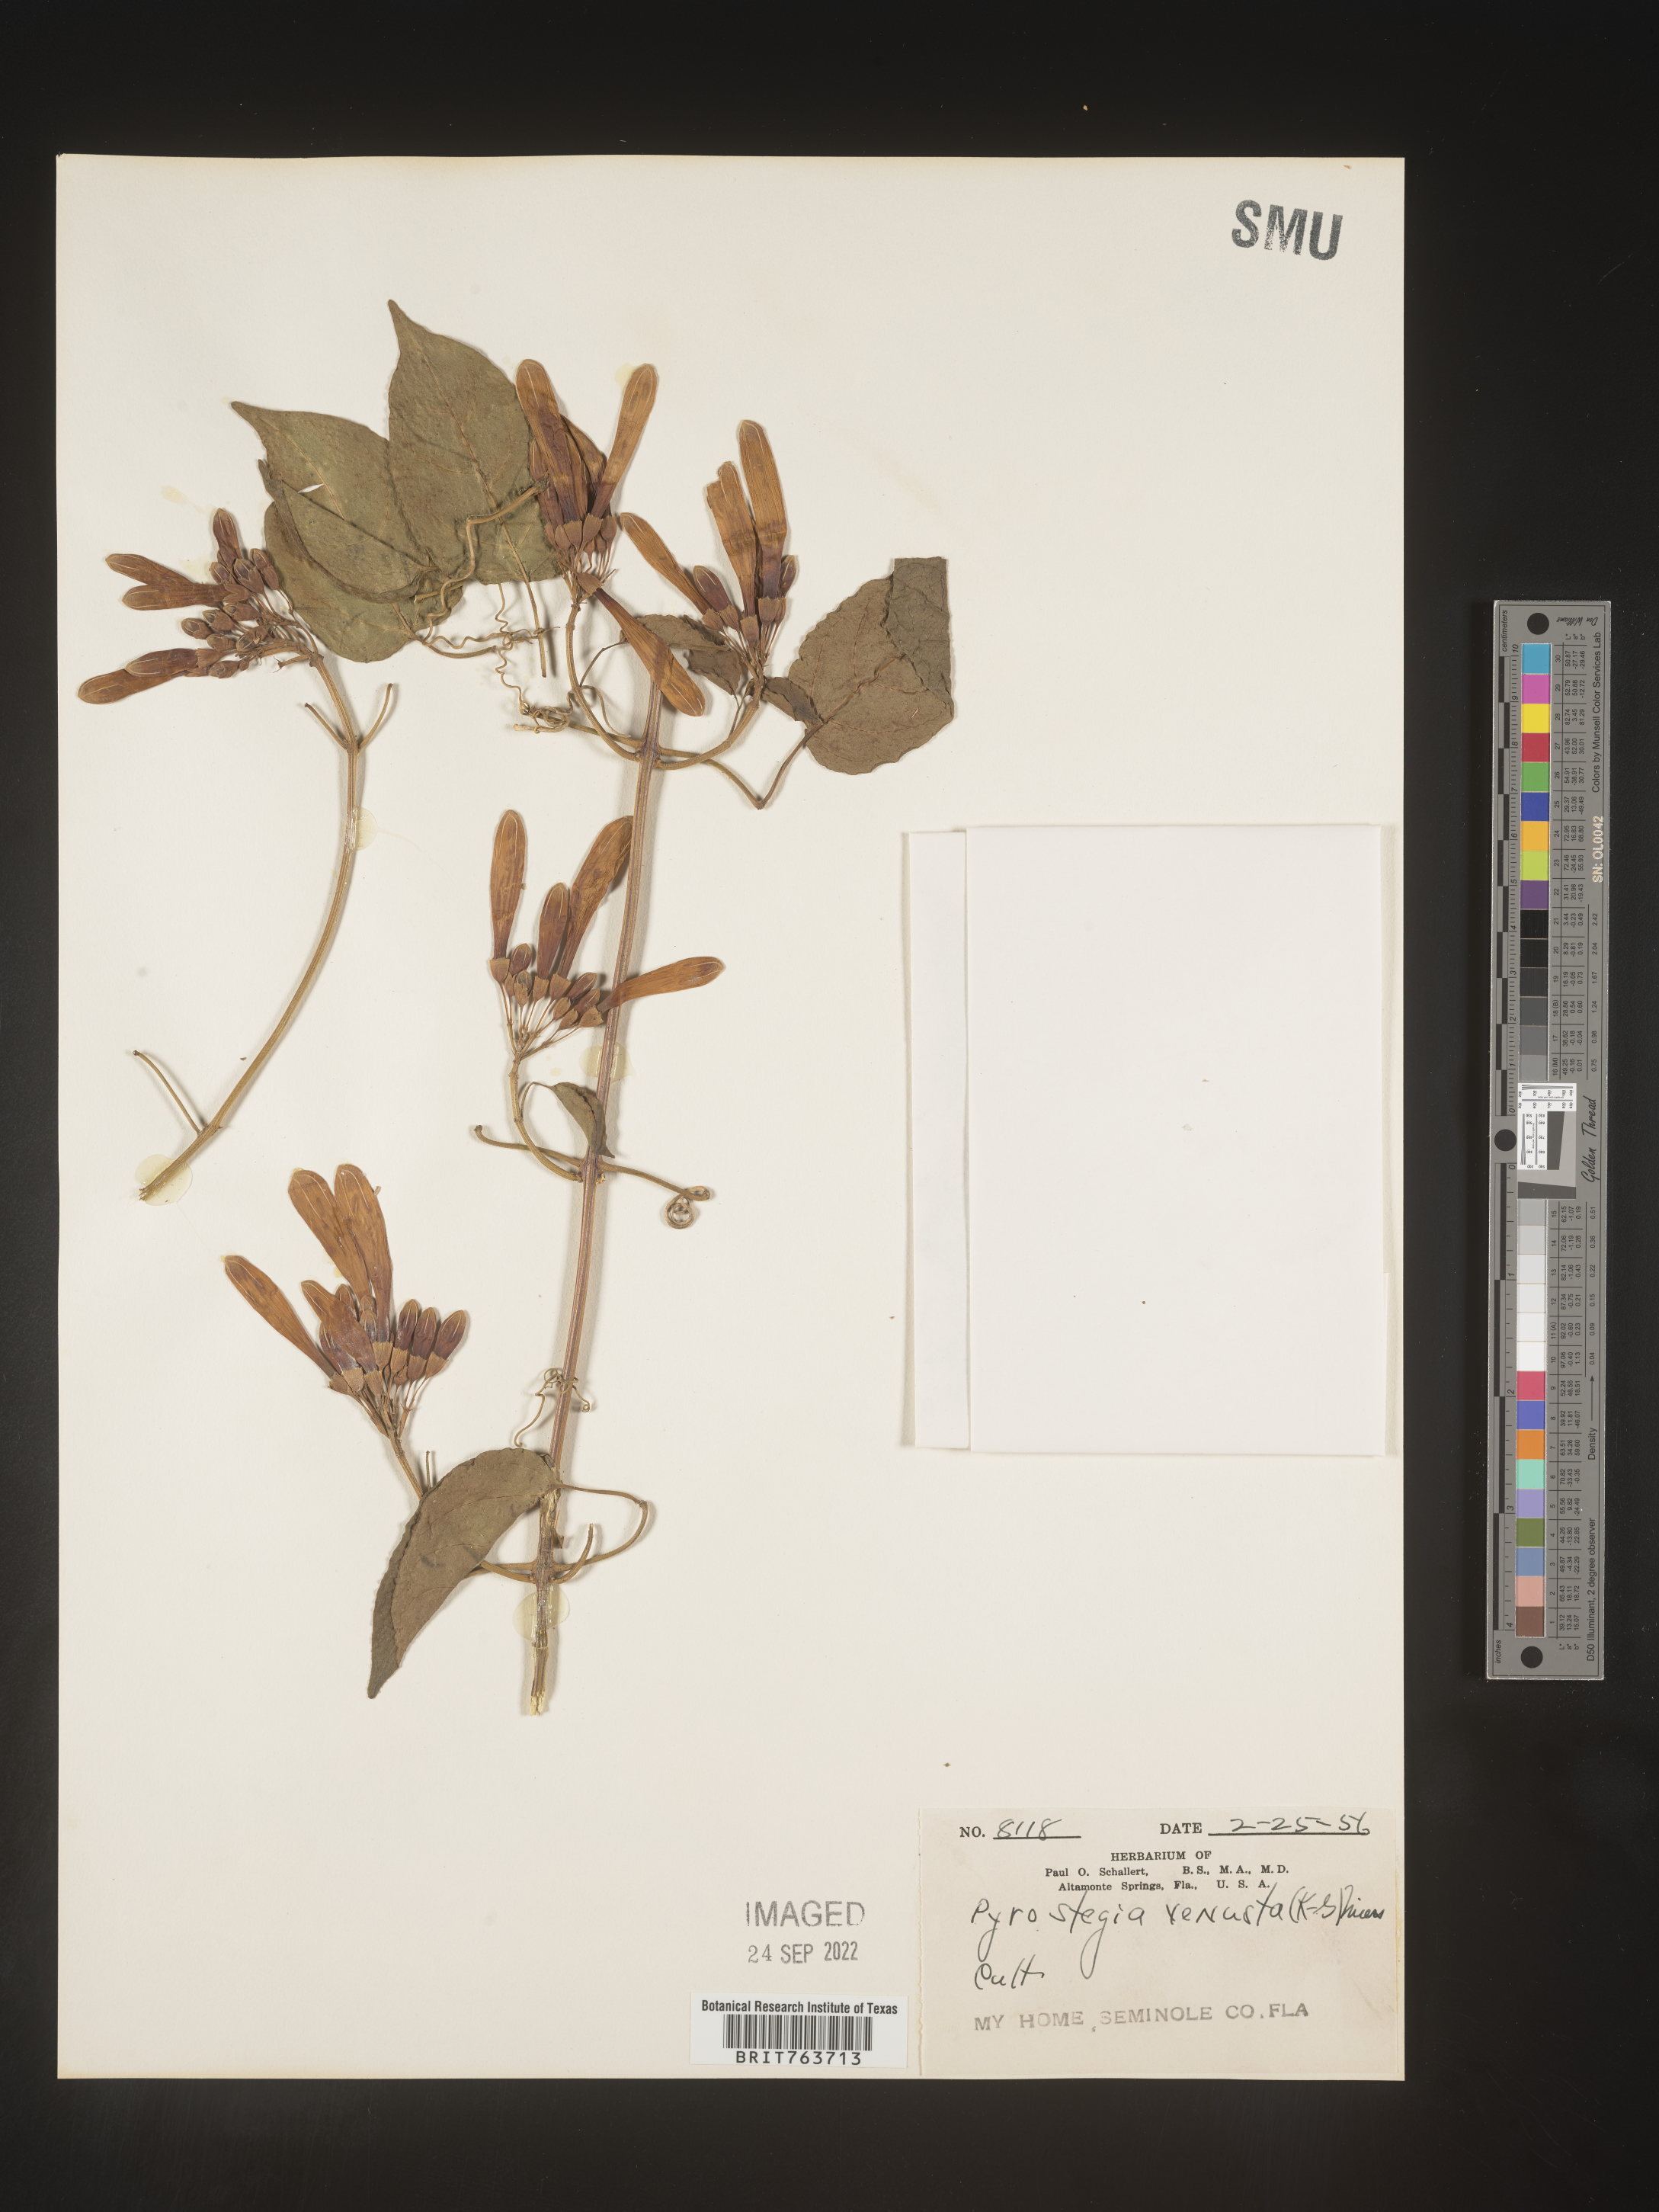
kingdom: Plantae
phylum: Tracheophyta
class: Magnoliopsida
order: Lamiales
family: Bignoniaceae
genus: Pyrostegia
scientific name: Pyrostegia
